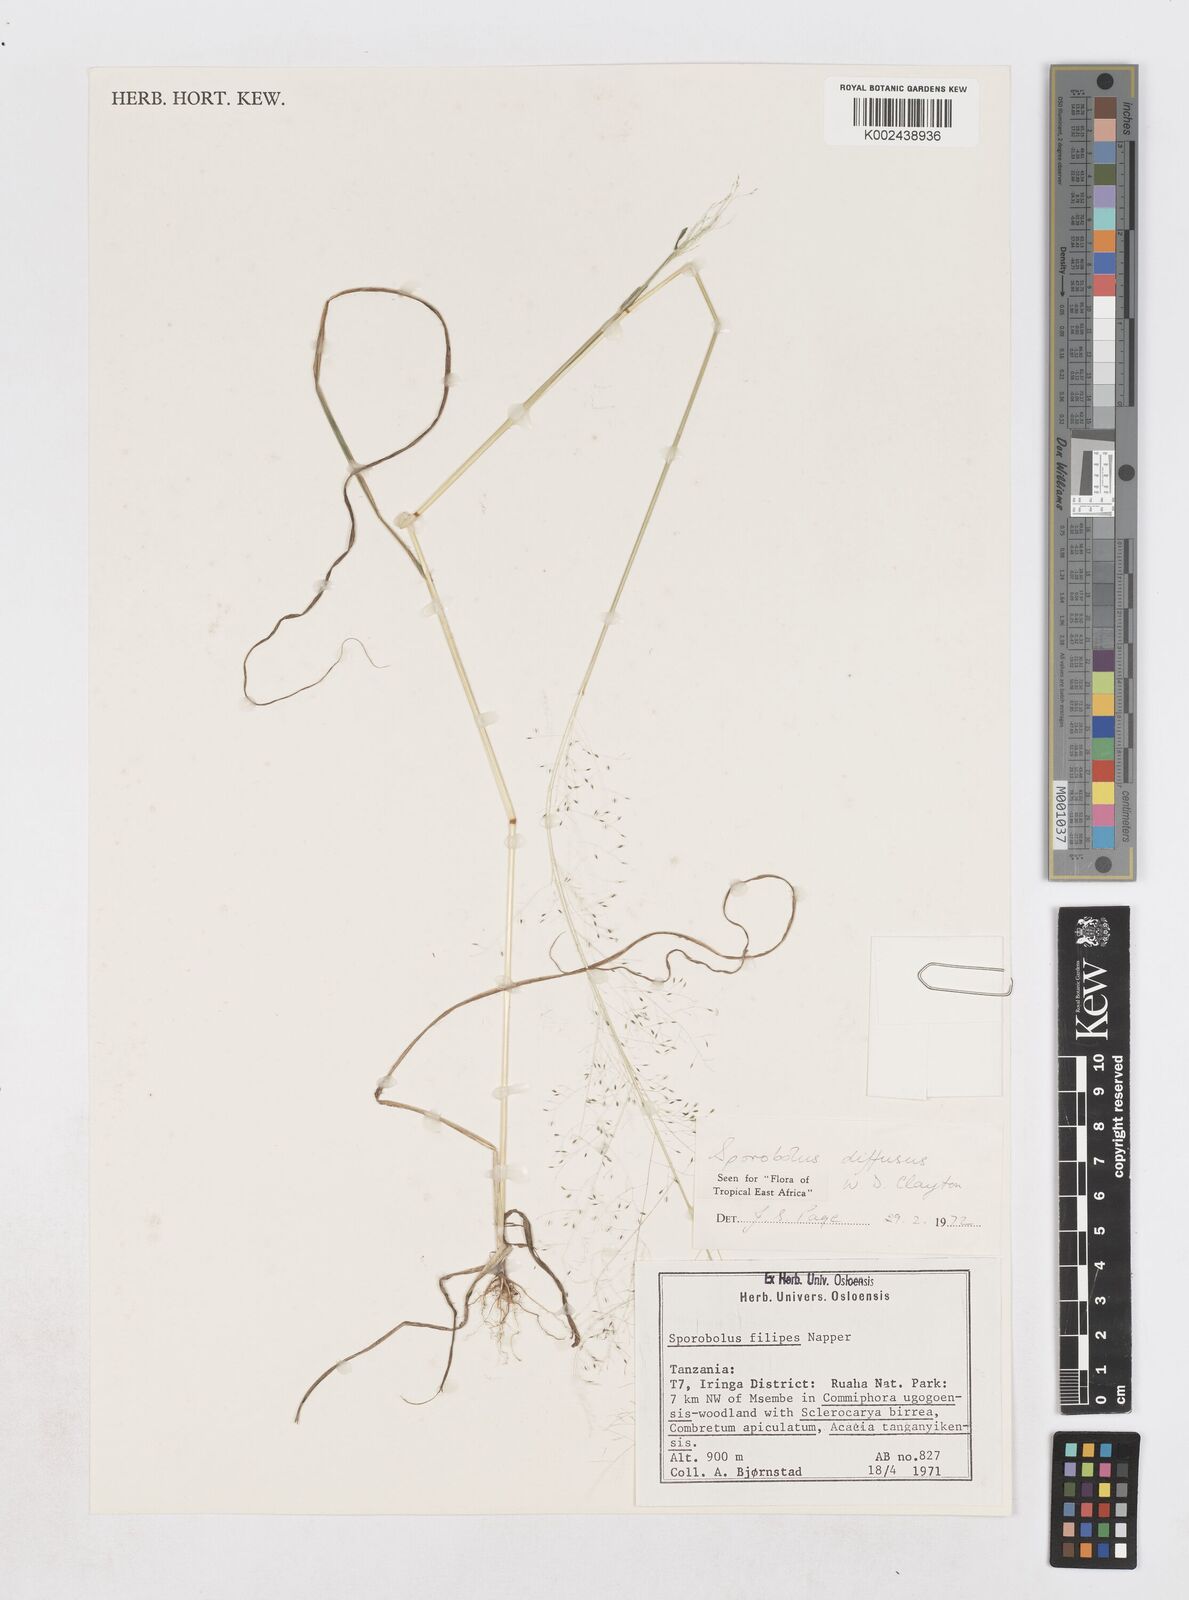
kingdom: Plantae
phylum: Tracheophyta
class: Liliopsida
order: Poales
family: Poaceae
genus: Sporobolus
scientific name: Sporobolus macranthelus
